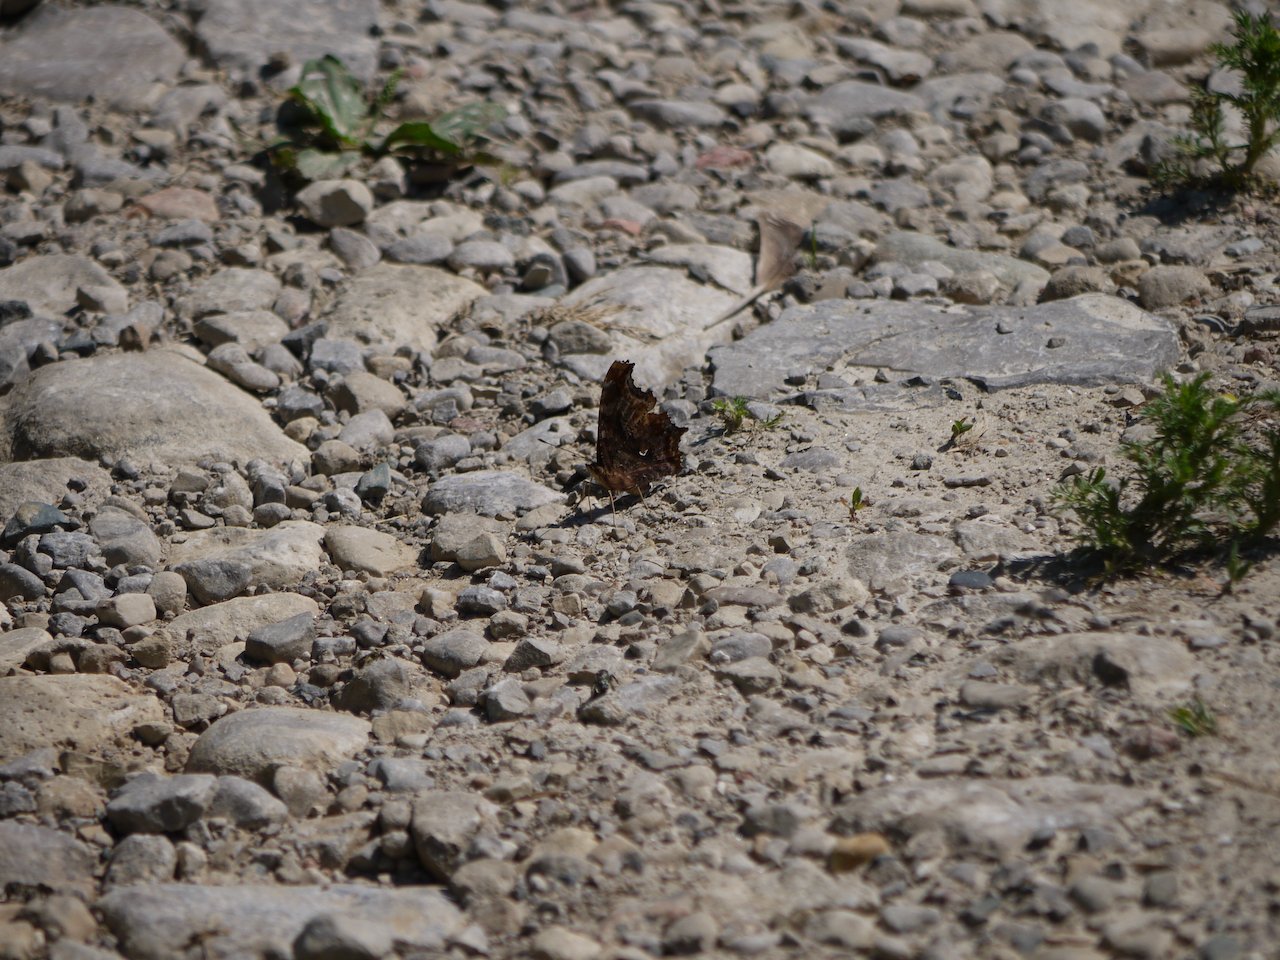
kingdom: Animalia
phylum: Arthropoda
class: Insecta
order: Lepidoptera
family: Nymphalidae
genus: Polygonia
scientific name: Polygonia
